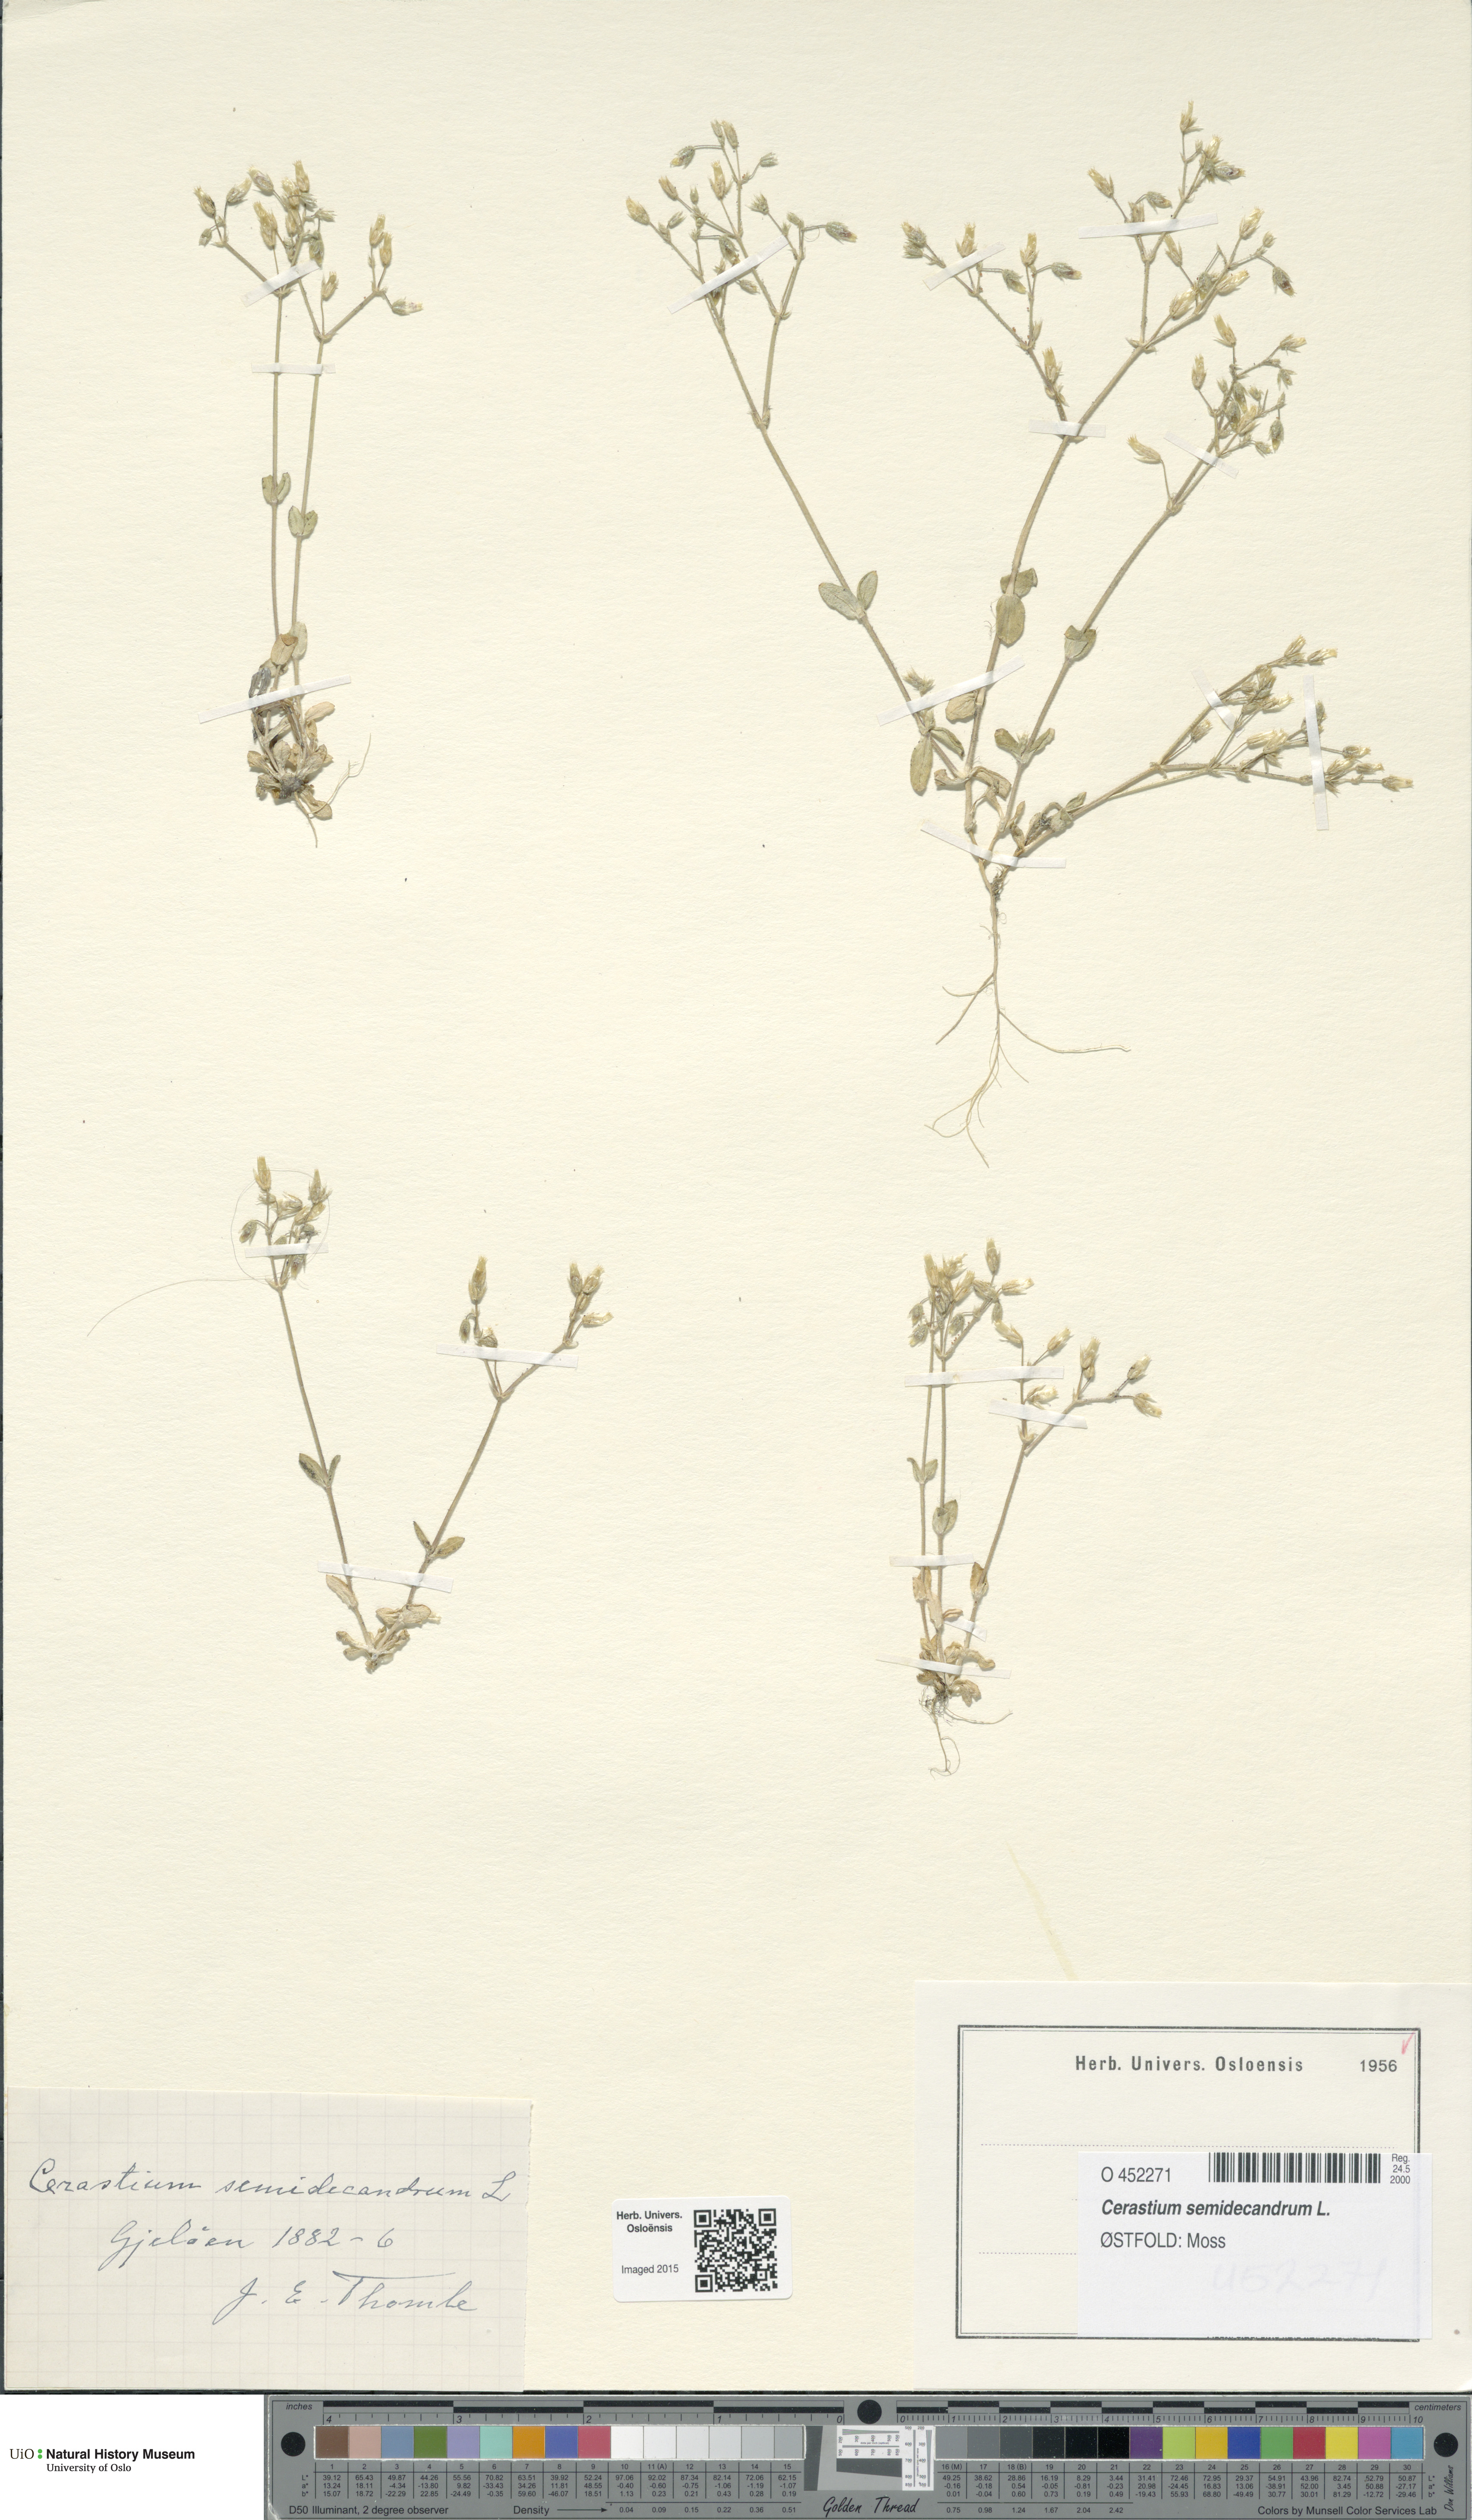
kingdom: Plantae
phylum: Tracheophyta
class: Magnoliopsida
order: Caryophyllales
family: Caryophyllaceae
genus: Cerastium
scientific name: Cerastium semidecandrum
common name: Little mouse-ear
